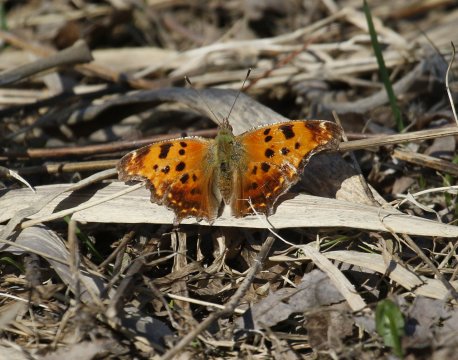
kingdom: Animalia
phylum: Arthropoda
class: Insecta
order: Lepidoptera
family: Nymphalidae
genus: Polygonia
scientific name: Polygonia comma
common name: Eastern Comma
